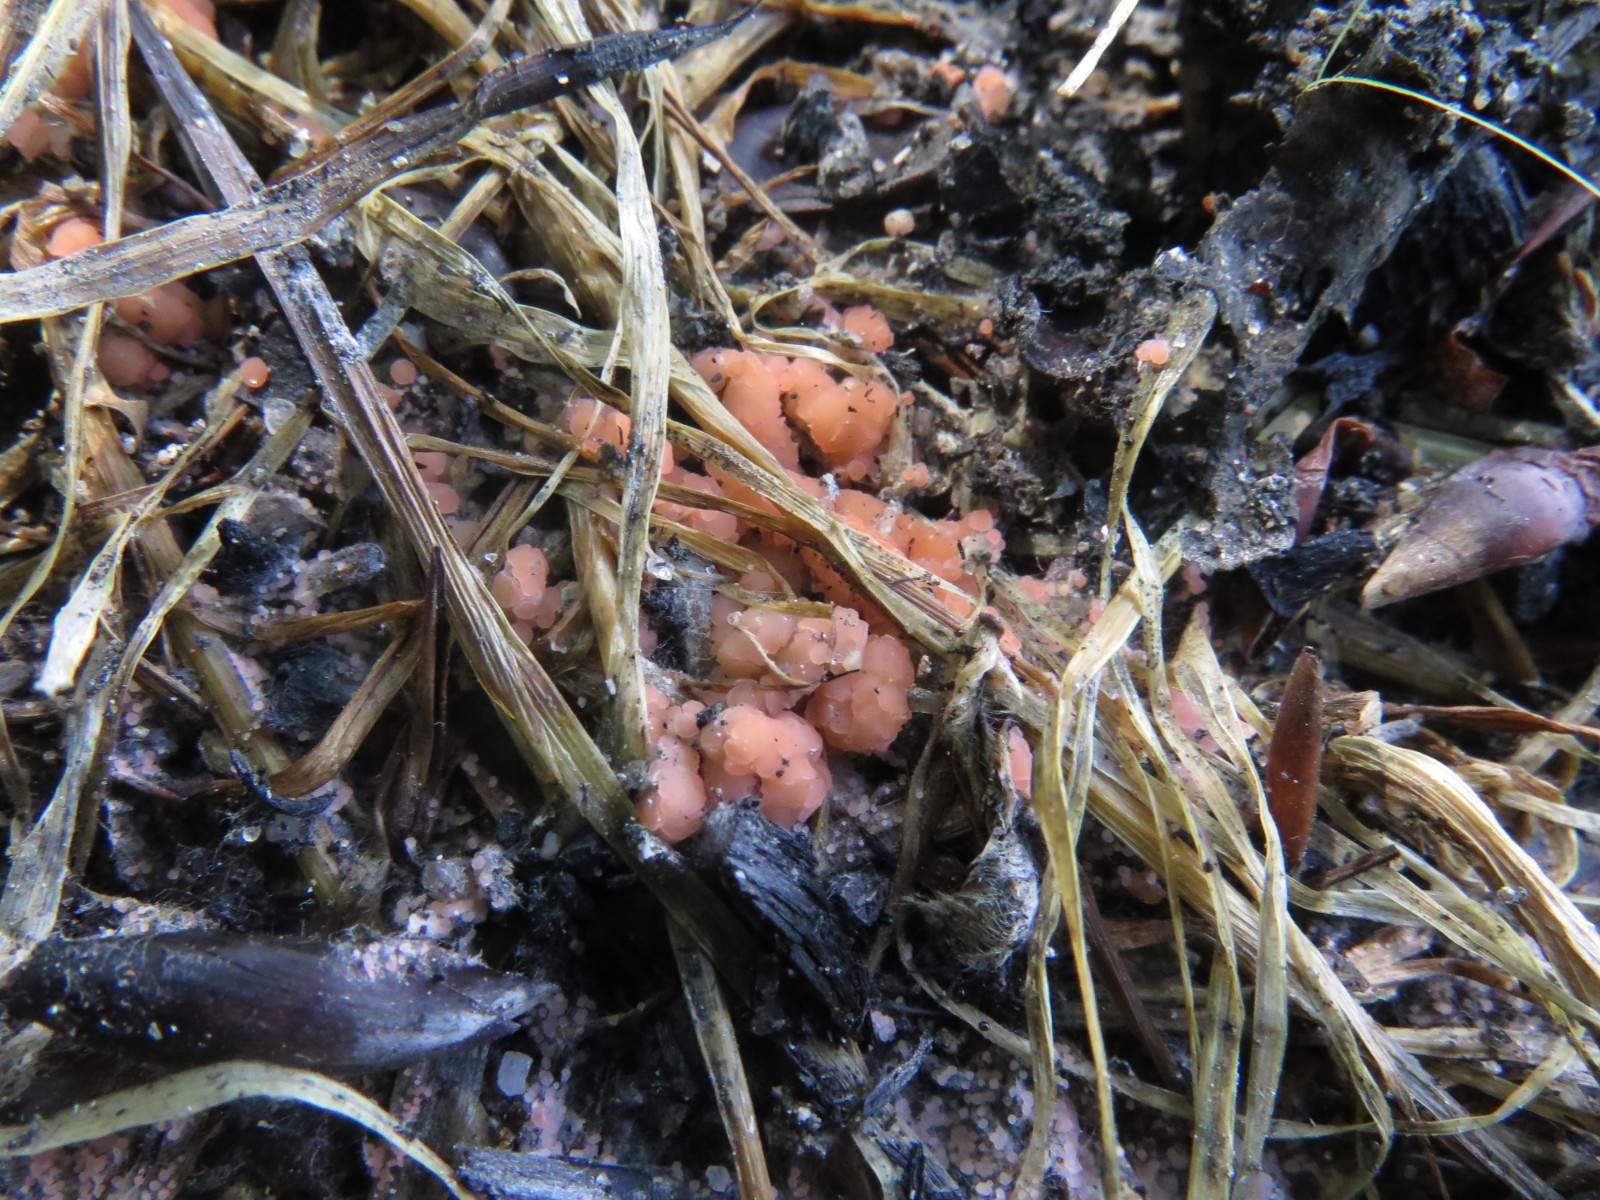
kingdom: Fungi
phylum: Ascomycota
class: Pezizomycetes
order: Pezizales
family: Pyronemataceae
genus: Pyronema
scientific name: Pyronema omphalodes
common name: glat askebæger
